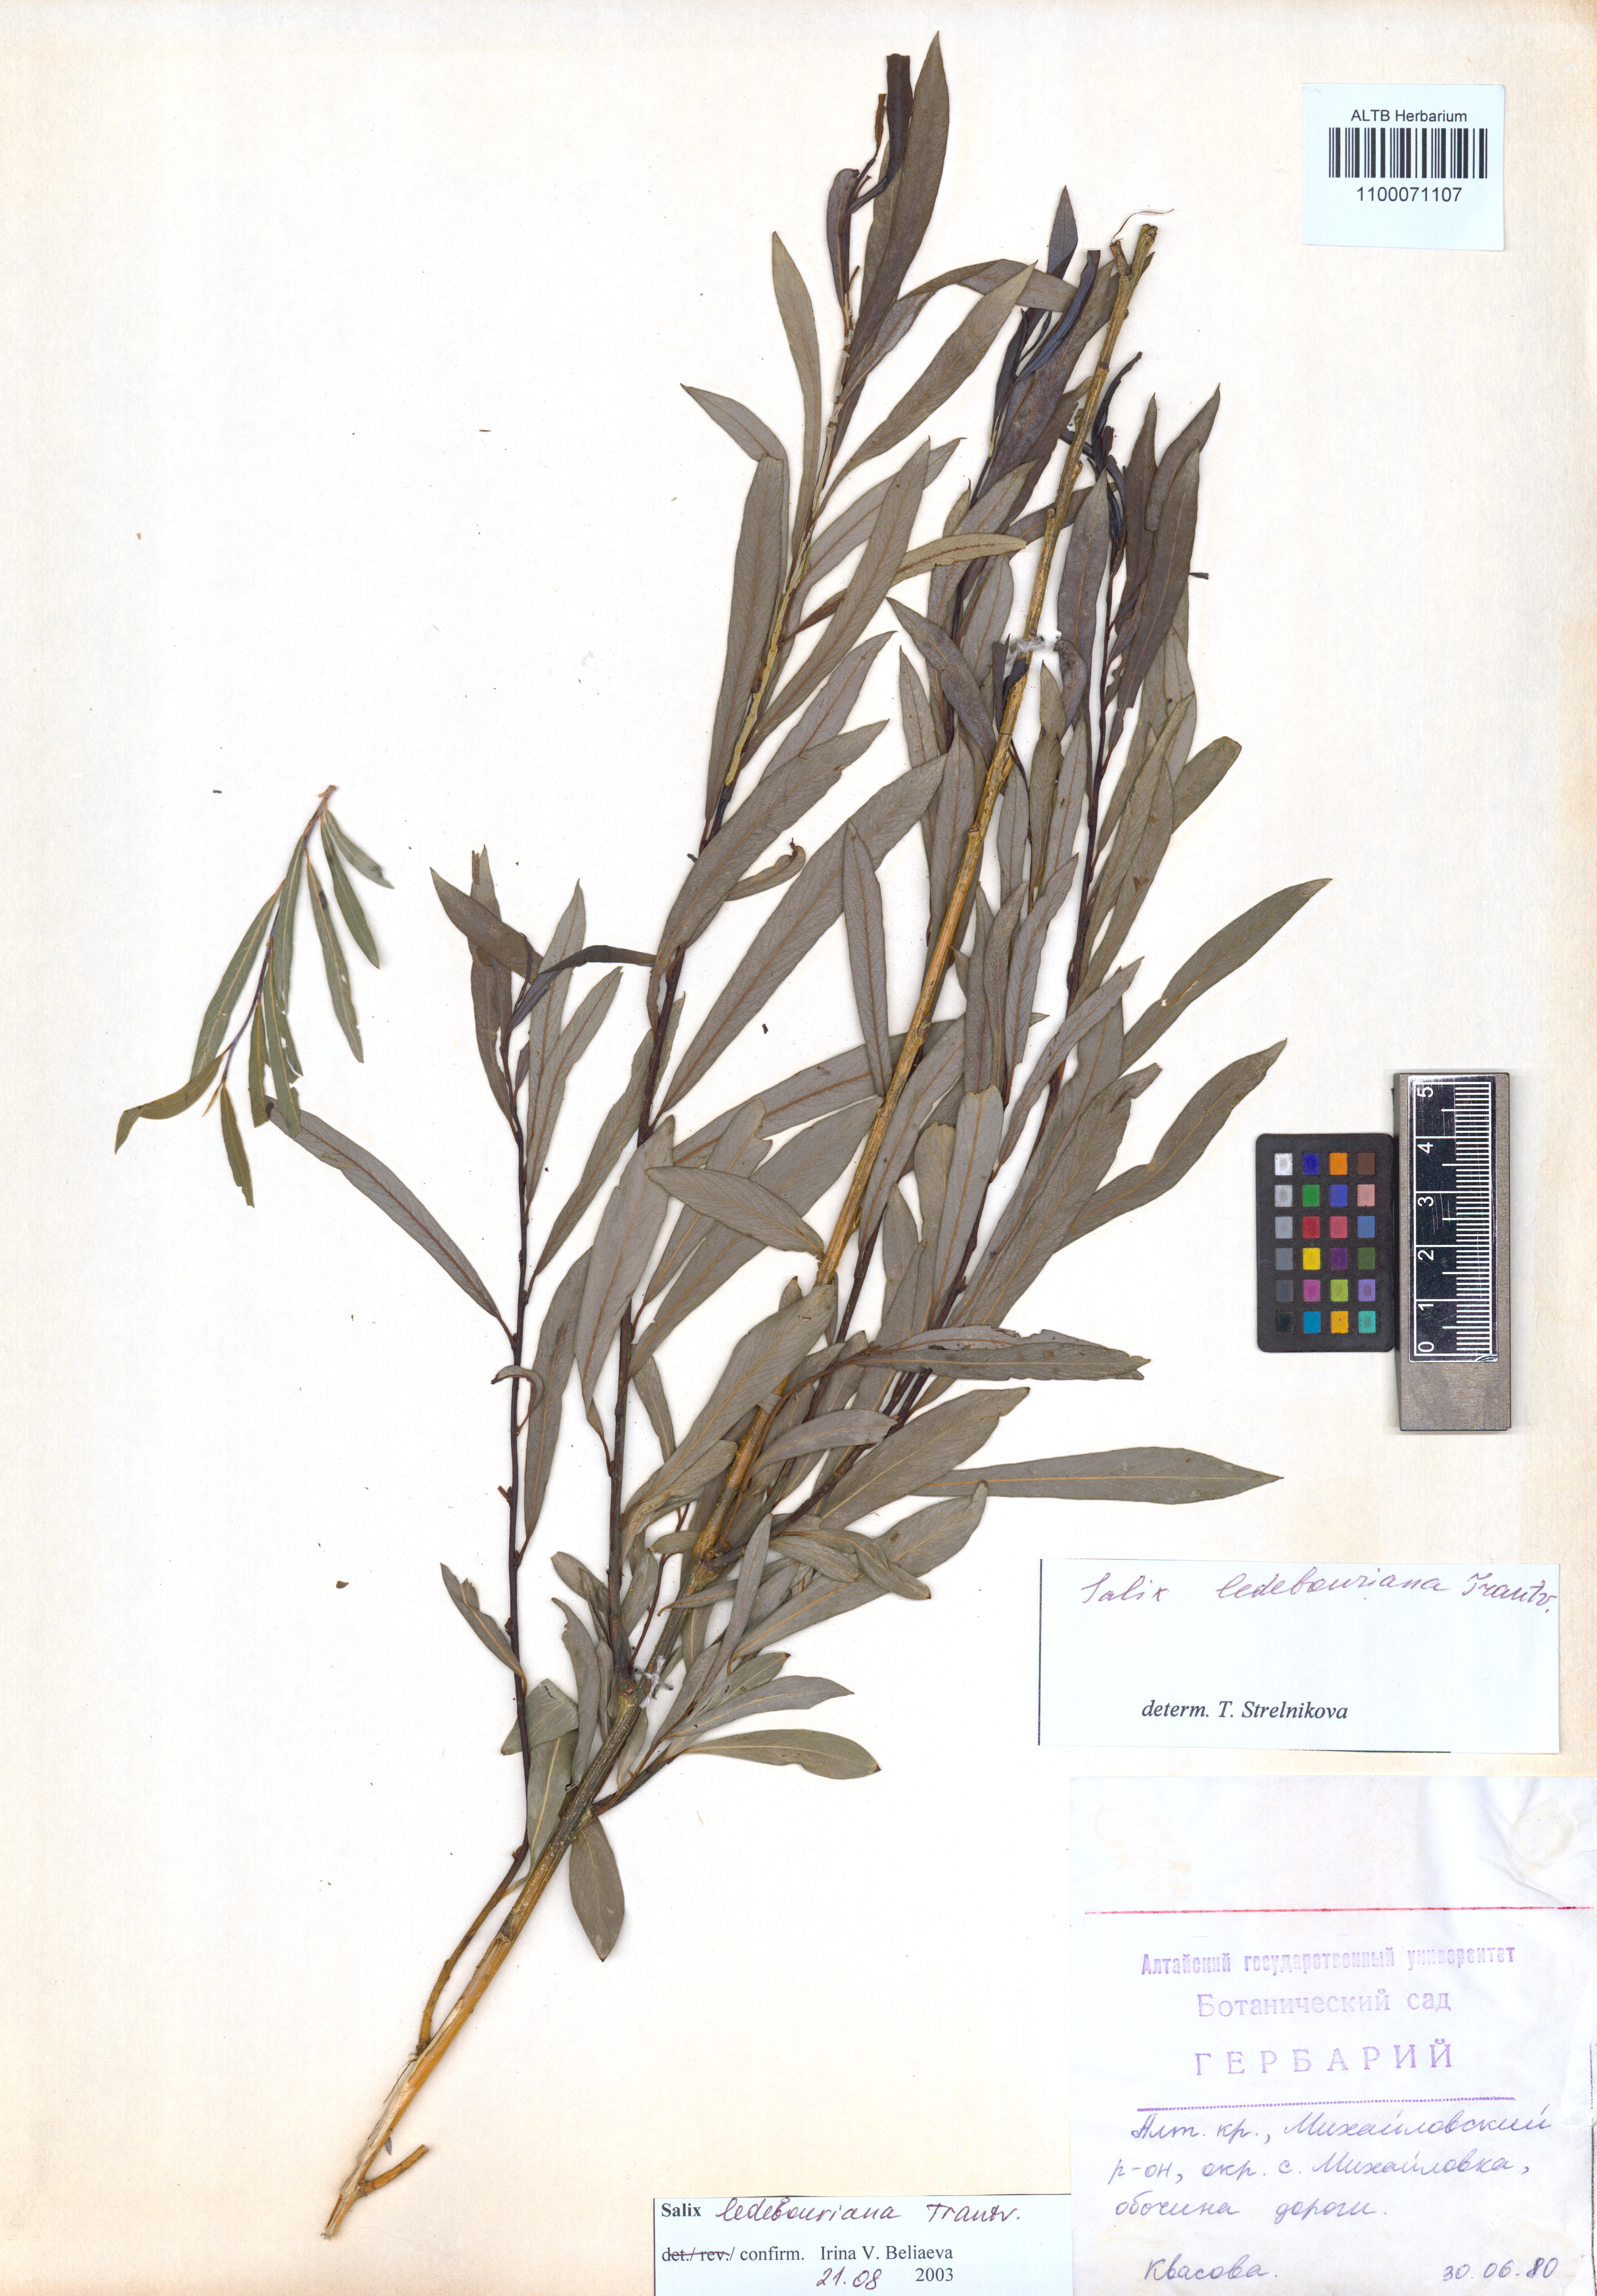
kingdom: Plantae
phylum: Tracheophyta
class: Magnoliopsida
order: Malpighiales
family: Salicaceae
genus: Salix
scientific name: Salix ledebouriana
